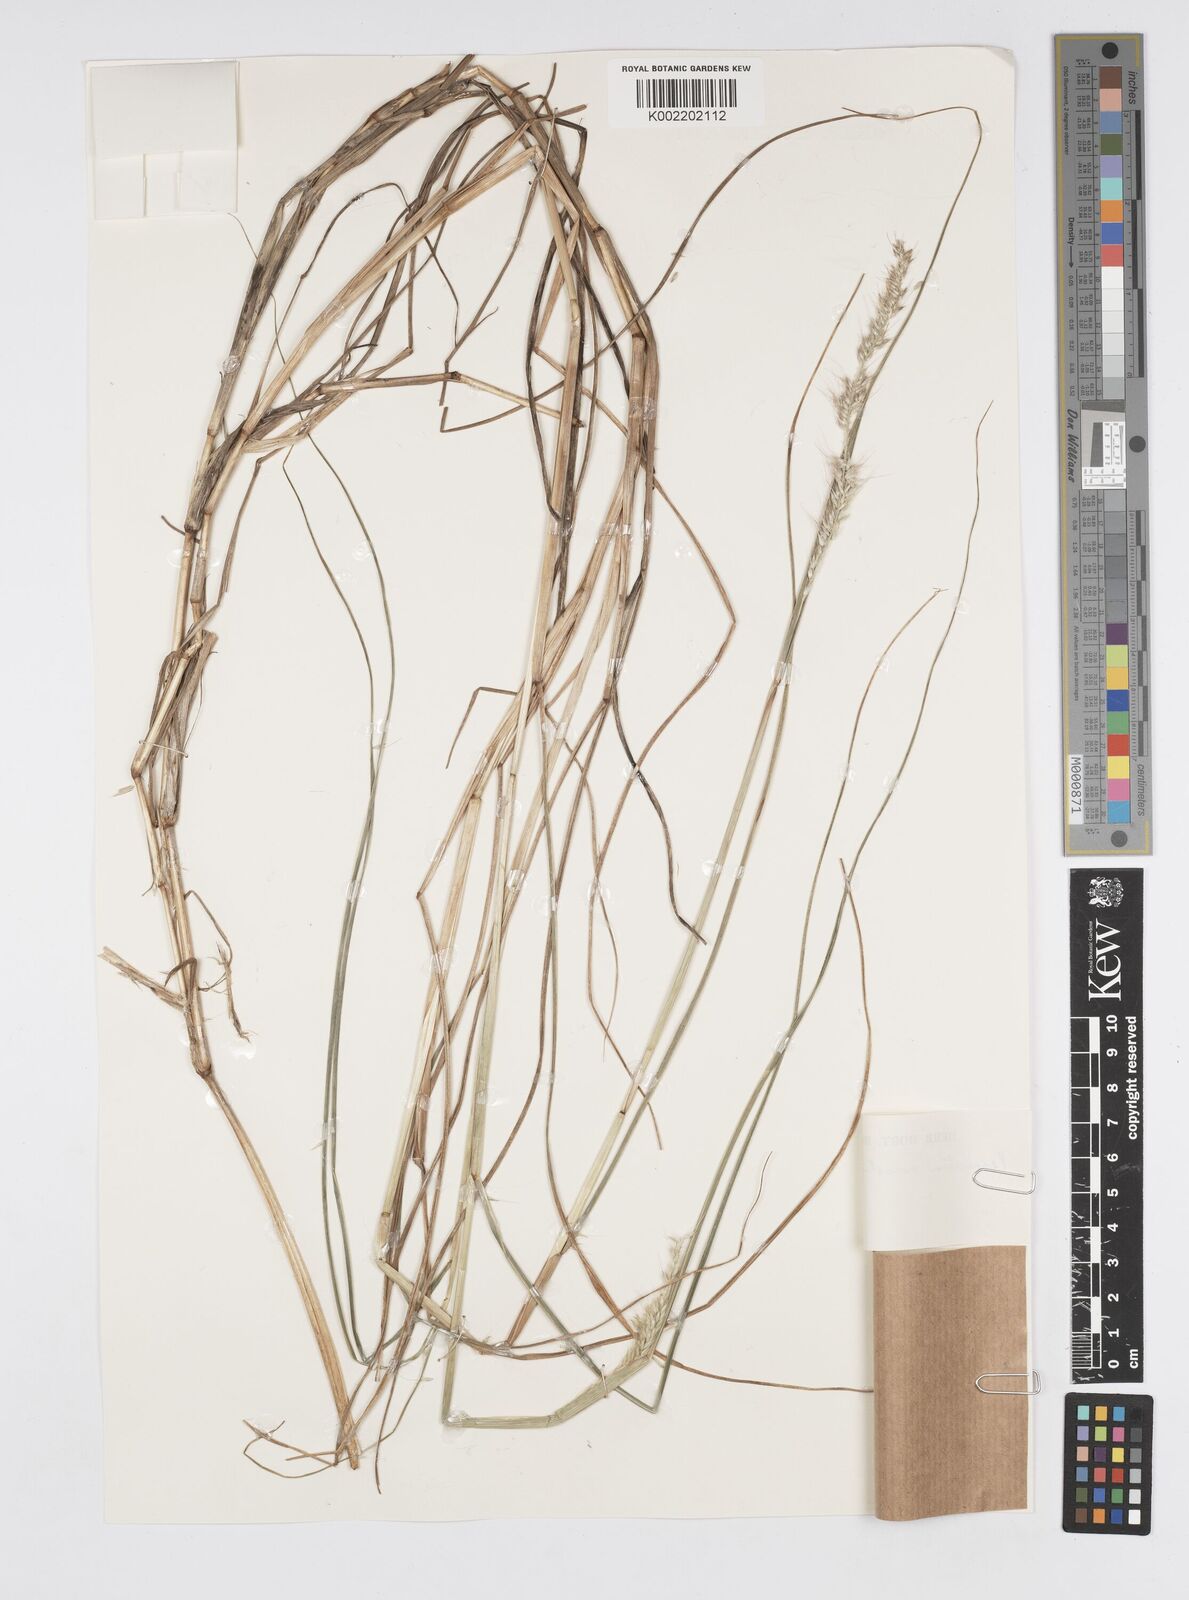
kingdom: Plantae
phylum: Tracheophyta
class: Liliopsida
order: Poales
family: Poaceae
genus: Cenchrus
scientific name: Cenchrus monostigma
